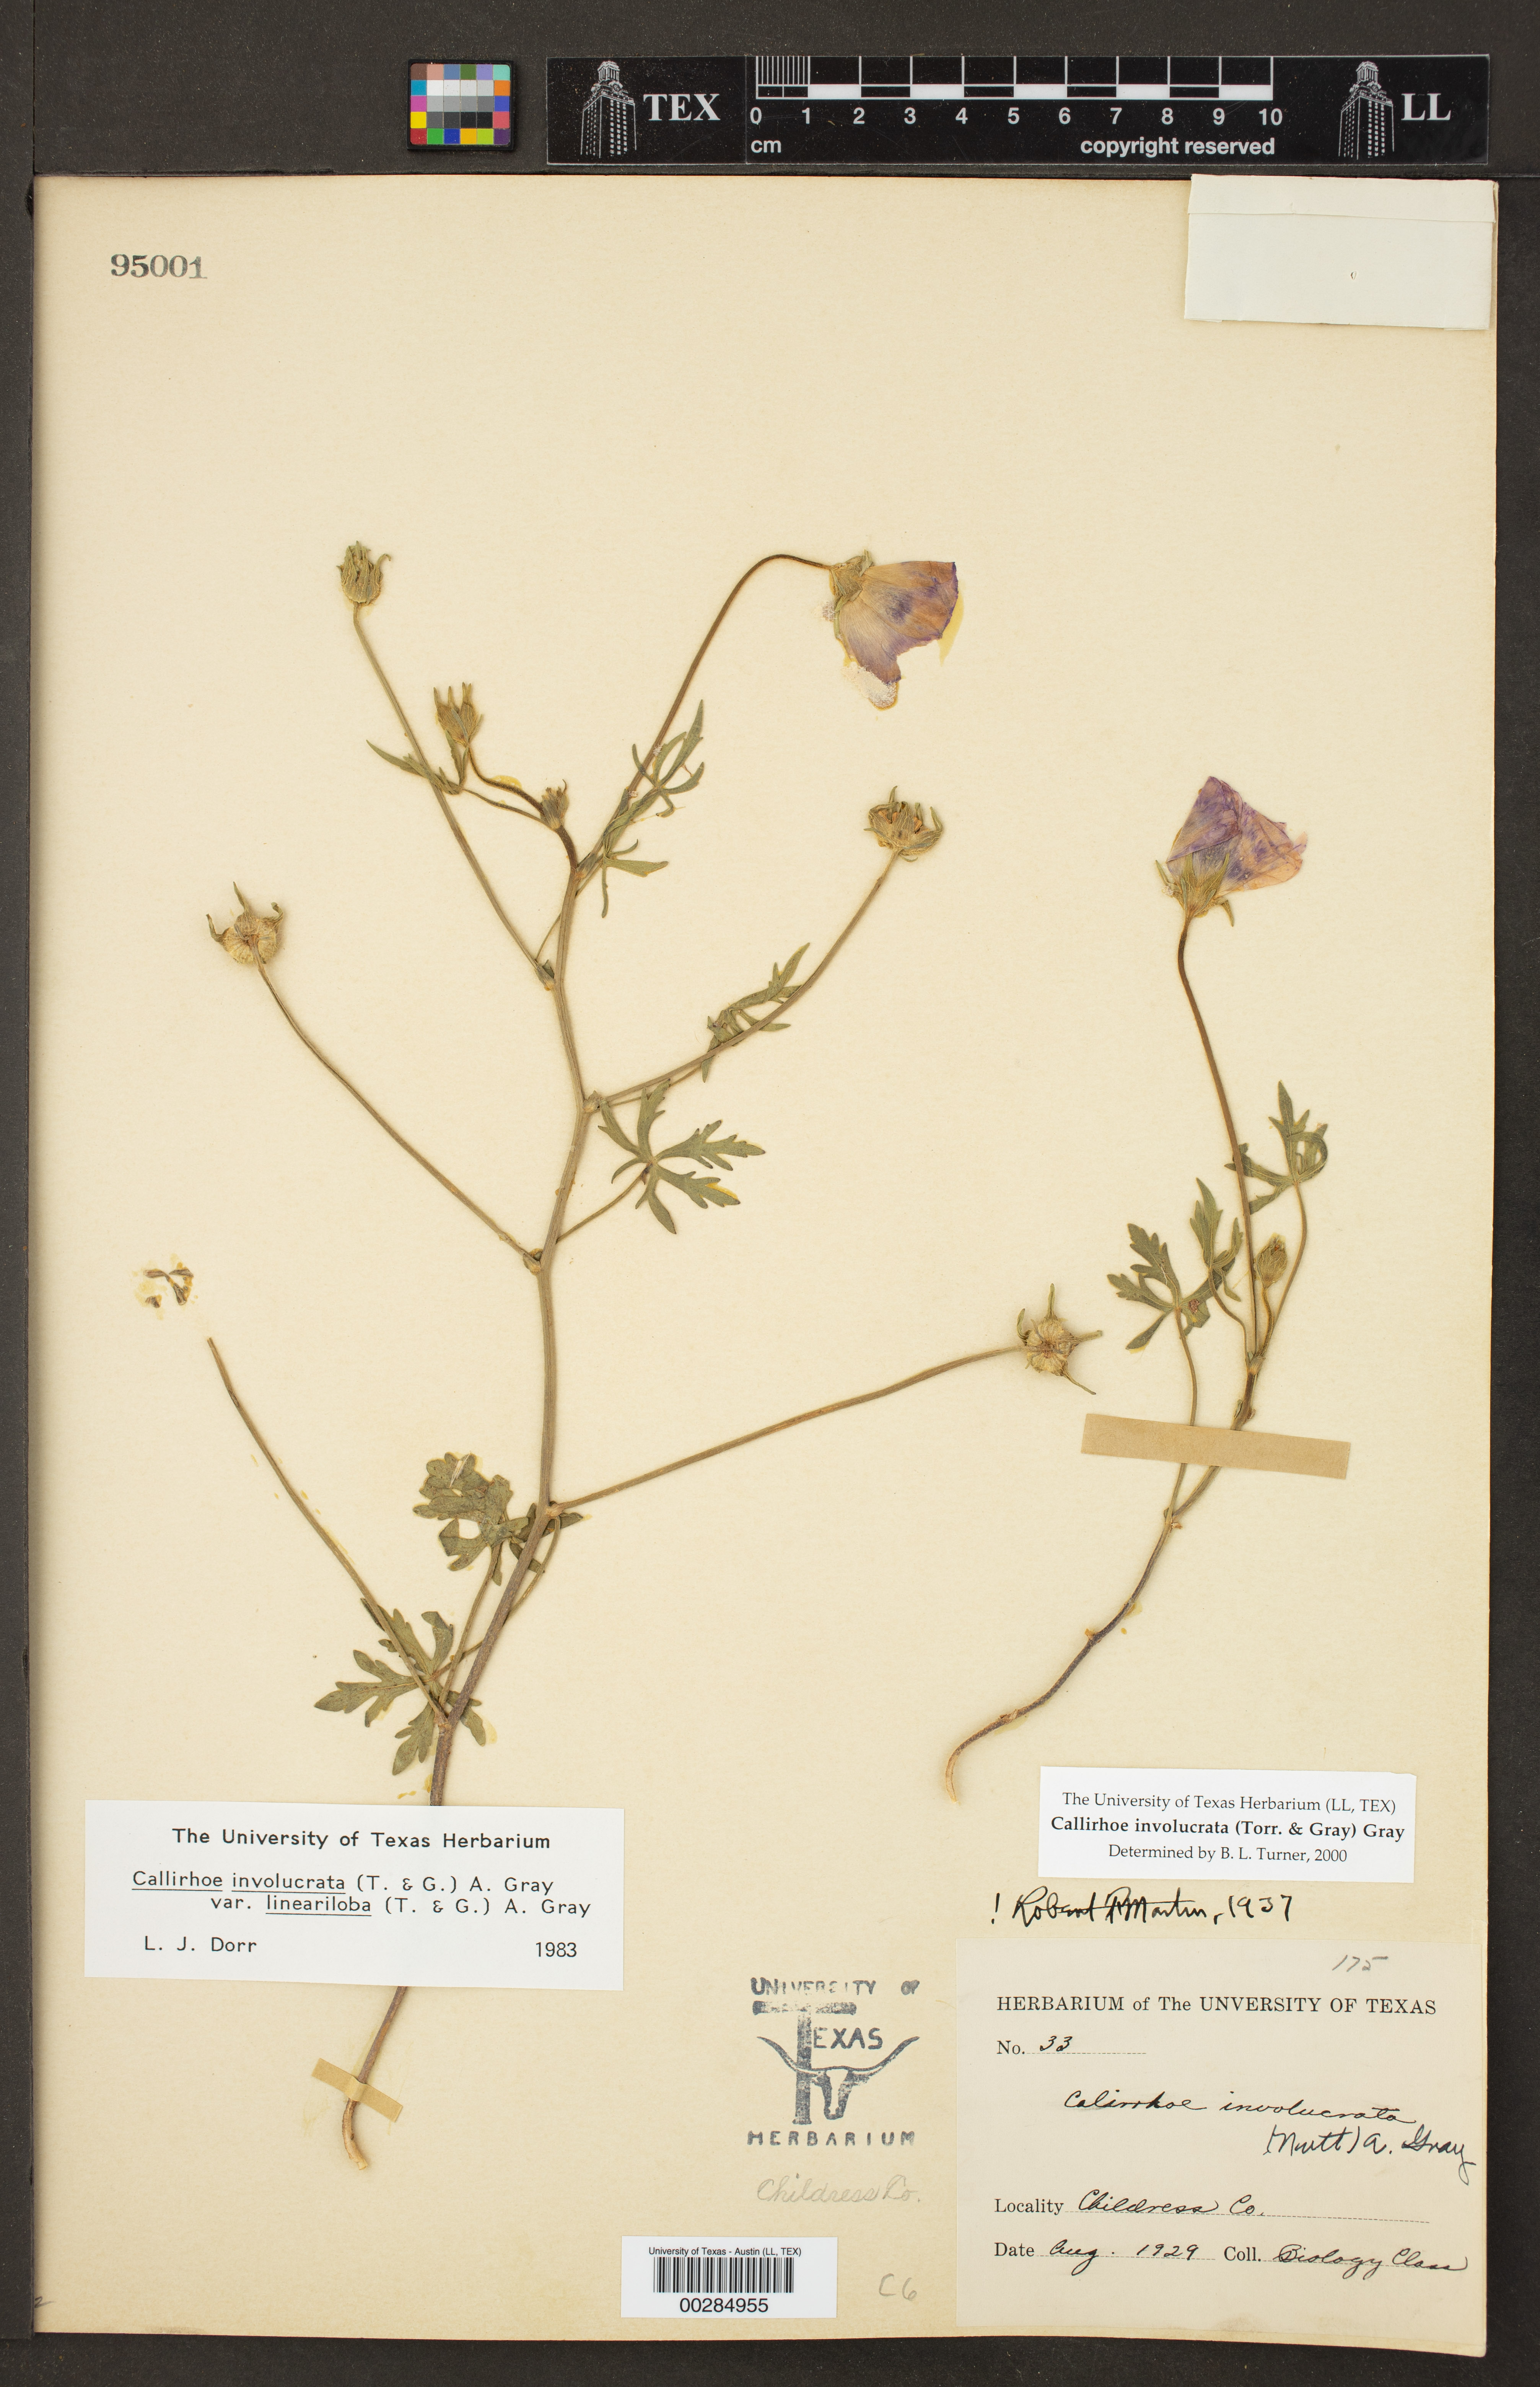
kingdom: Plantae
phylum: Tracheophyta
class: Magnoliopsida
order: Malvales
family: Malvaceae
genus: Callirhoe
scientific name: Callirhoe involucrata
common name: Purple poppy-mallow
